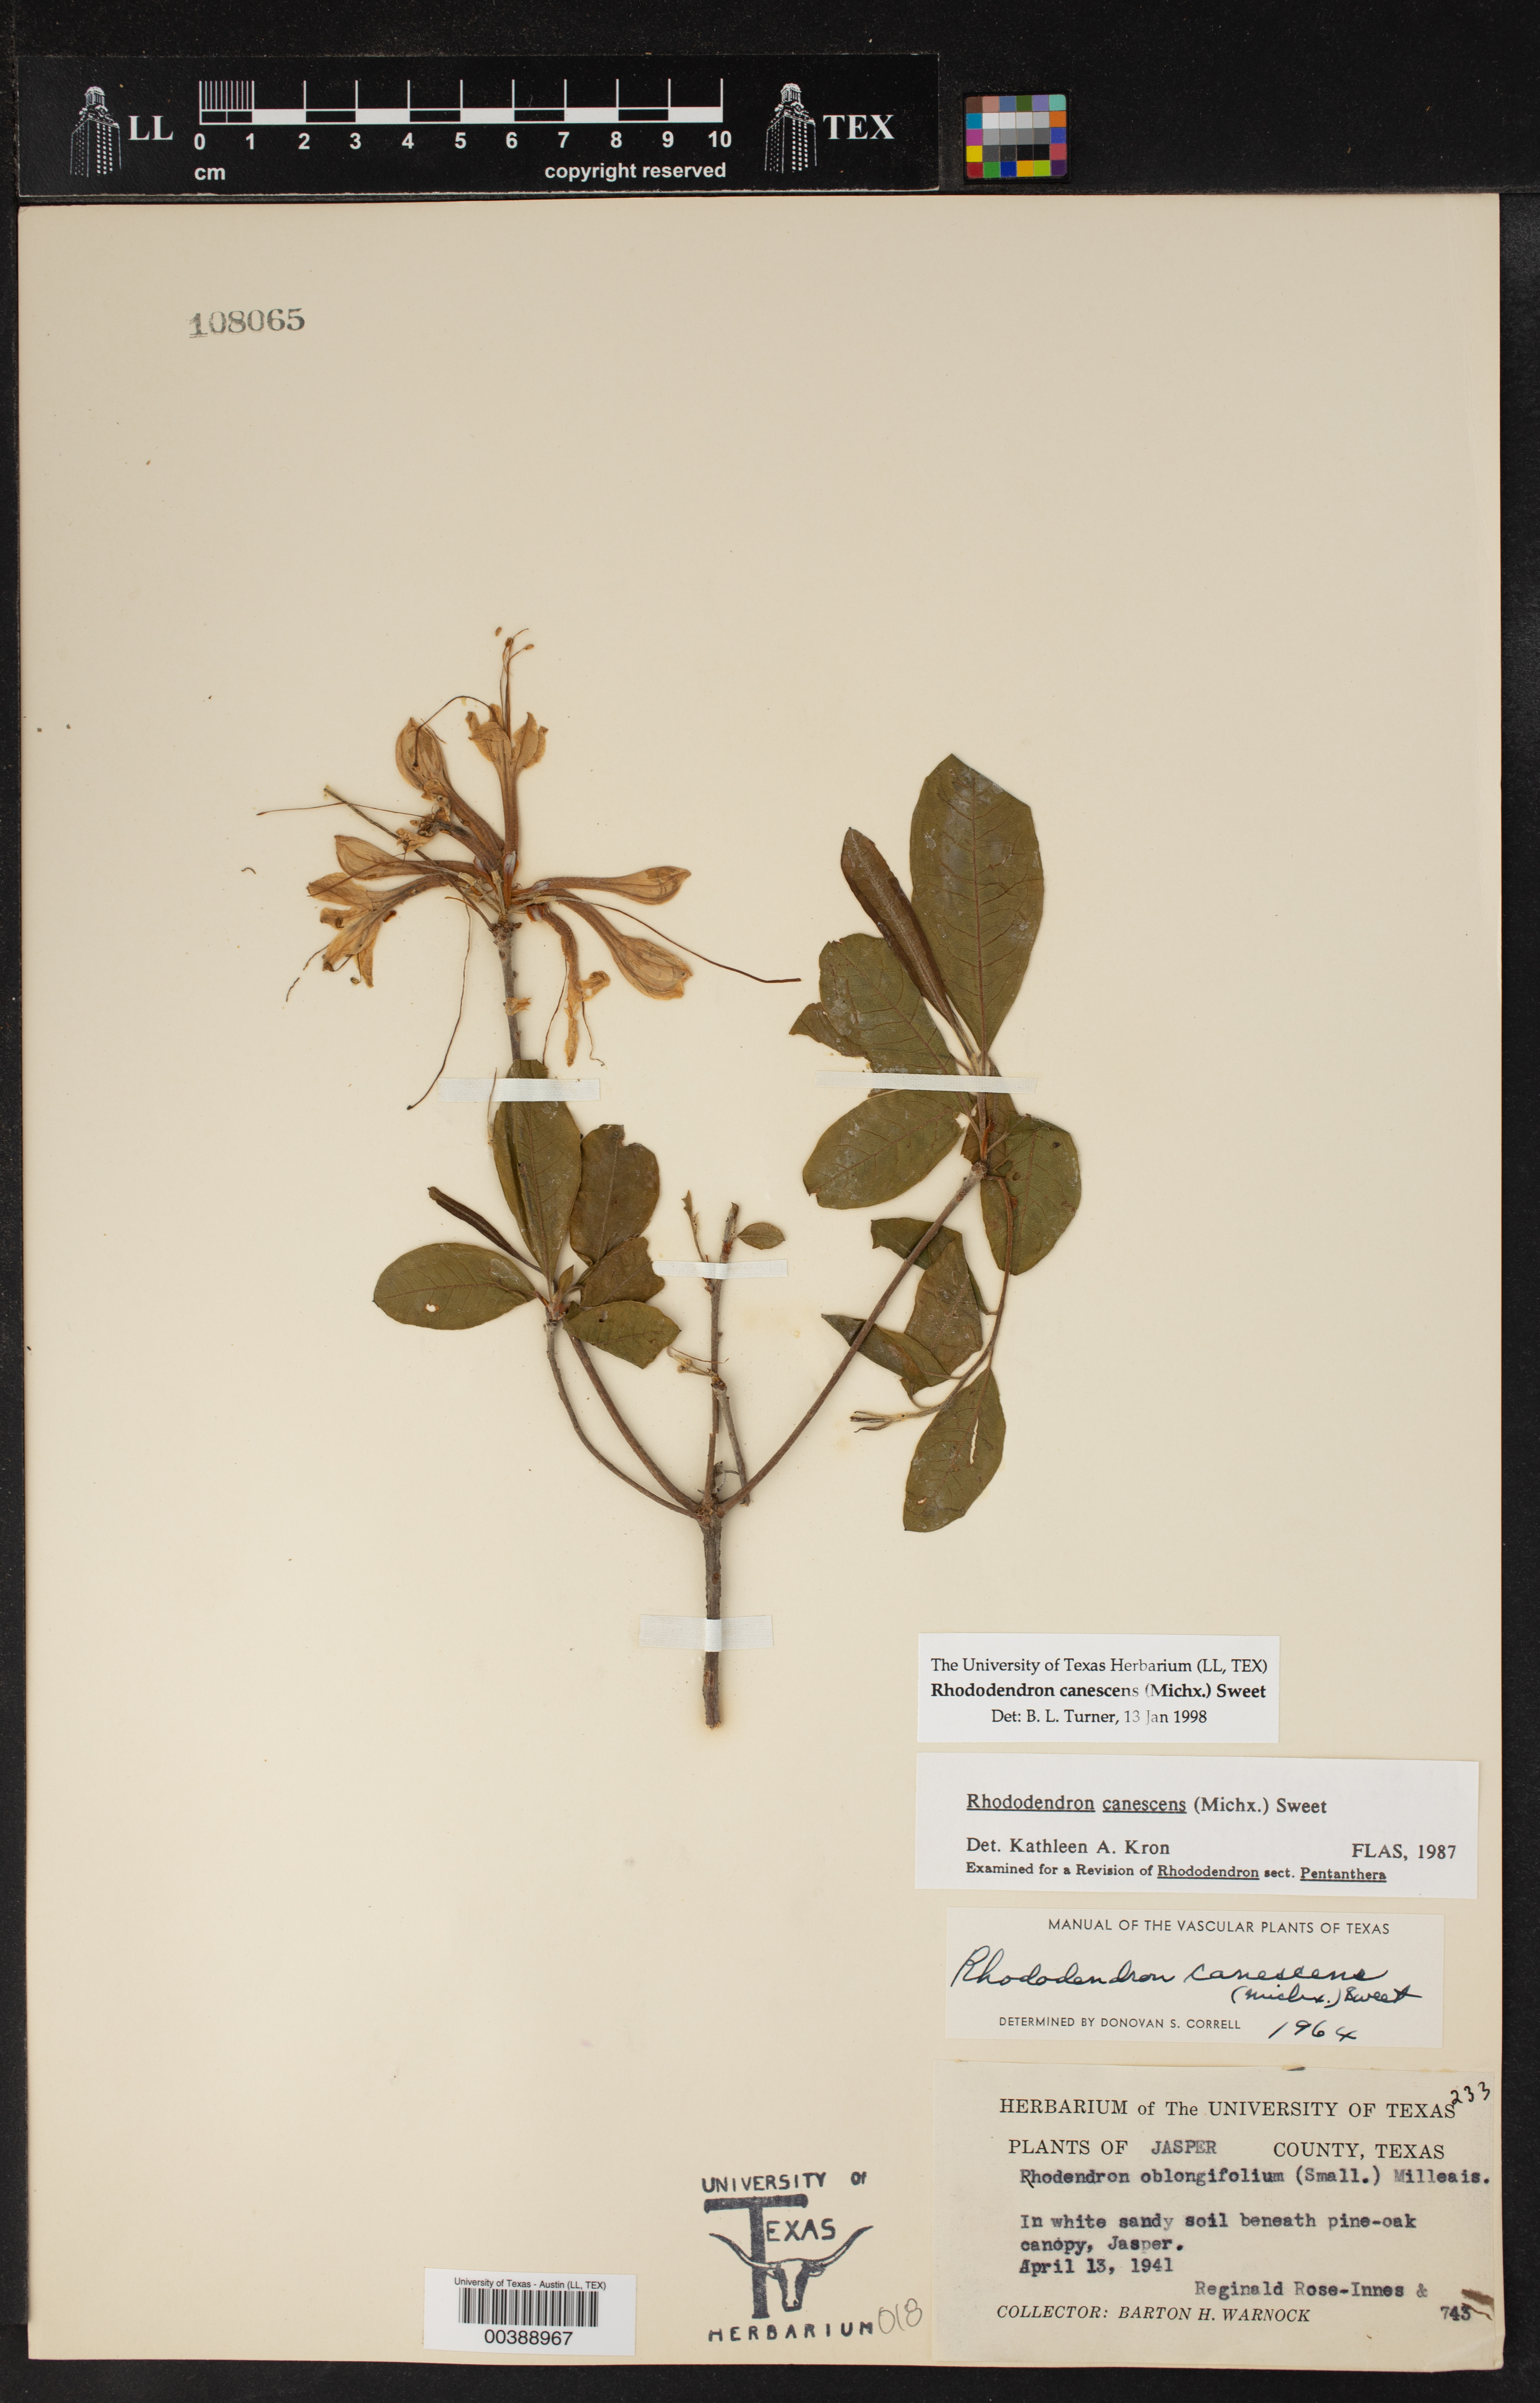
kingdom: Plantae
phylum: Tracheophyta
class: Magnoliopsida
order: Ericales
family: Ericaceae
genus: Rhododendron
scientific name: Rhododendron canescens
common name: Mountain azalea
